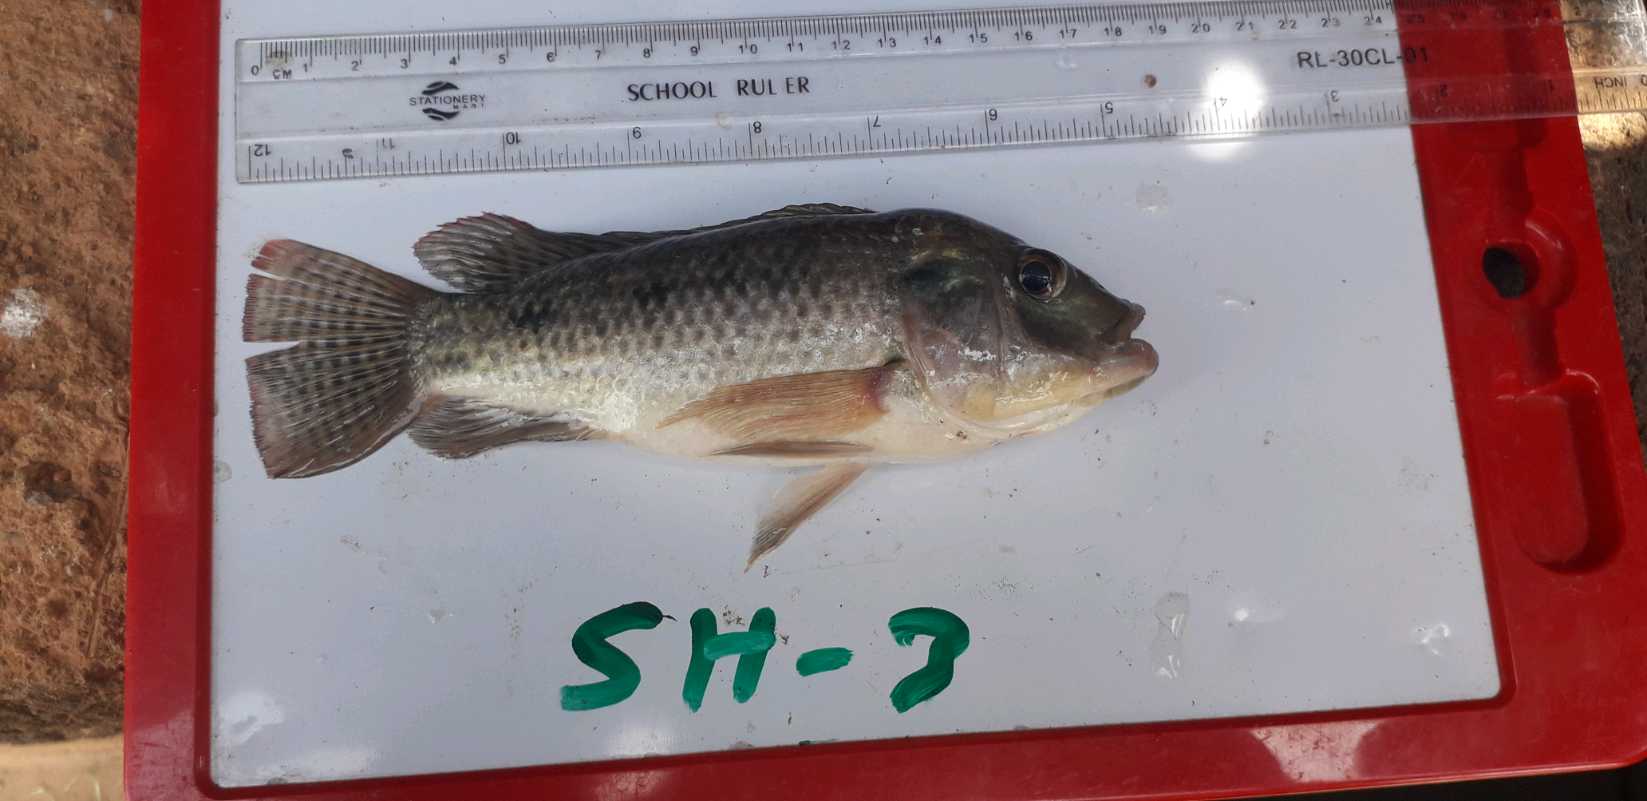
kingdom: Animalia
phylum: Chordata
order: Perciformes
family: Cichlidae
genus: Oreochromis
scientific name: Oreochromis urolepis
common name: Wami tilapia
